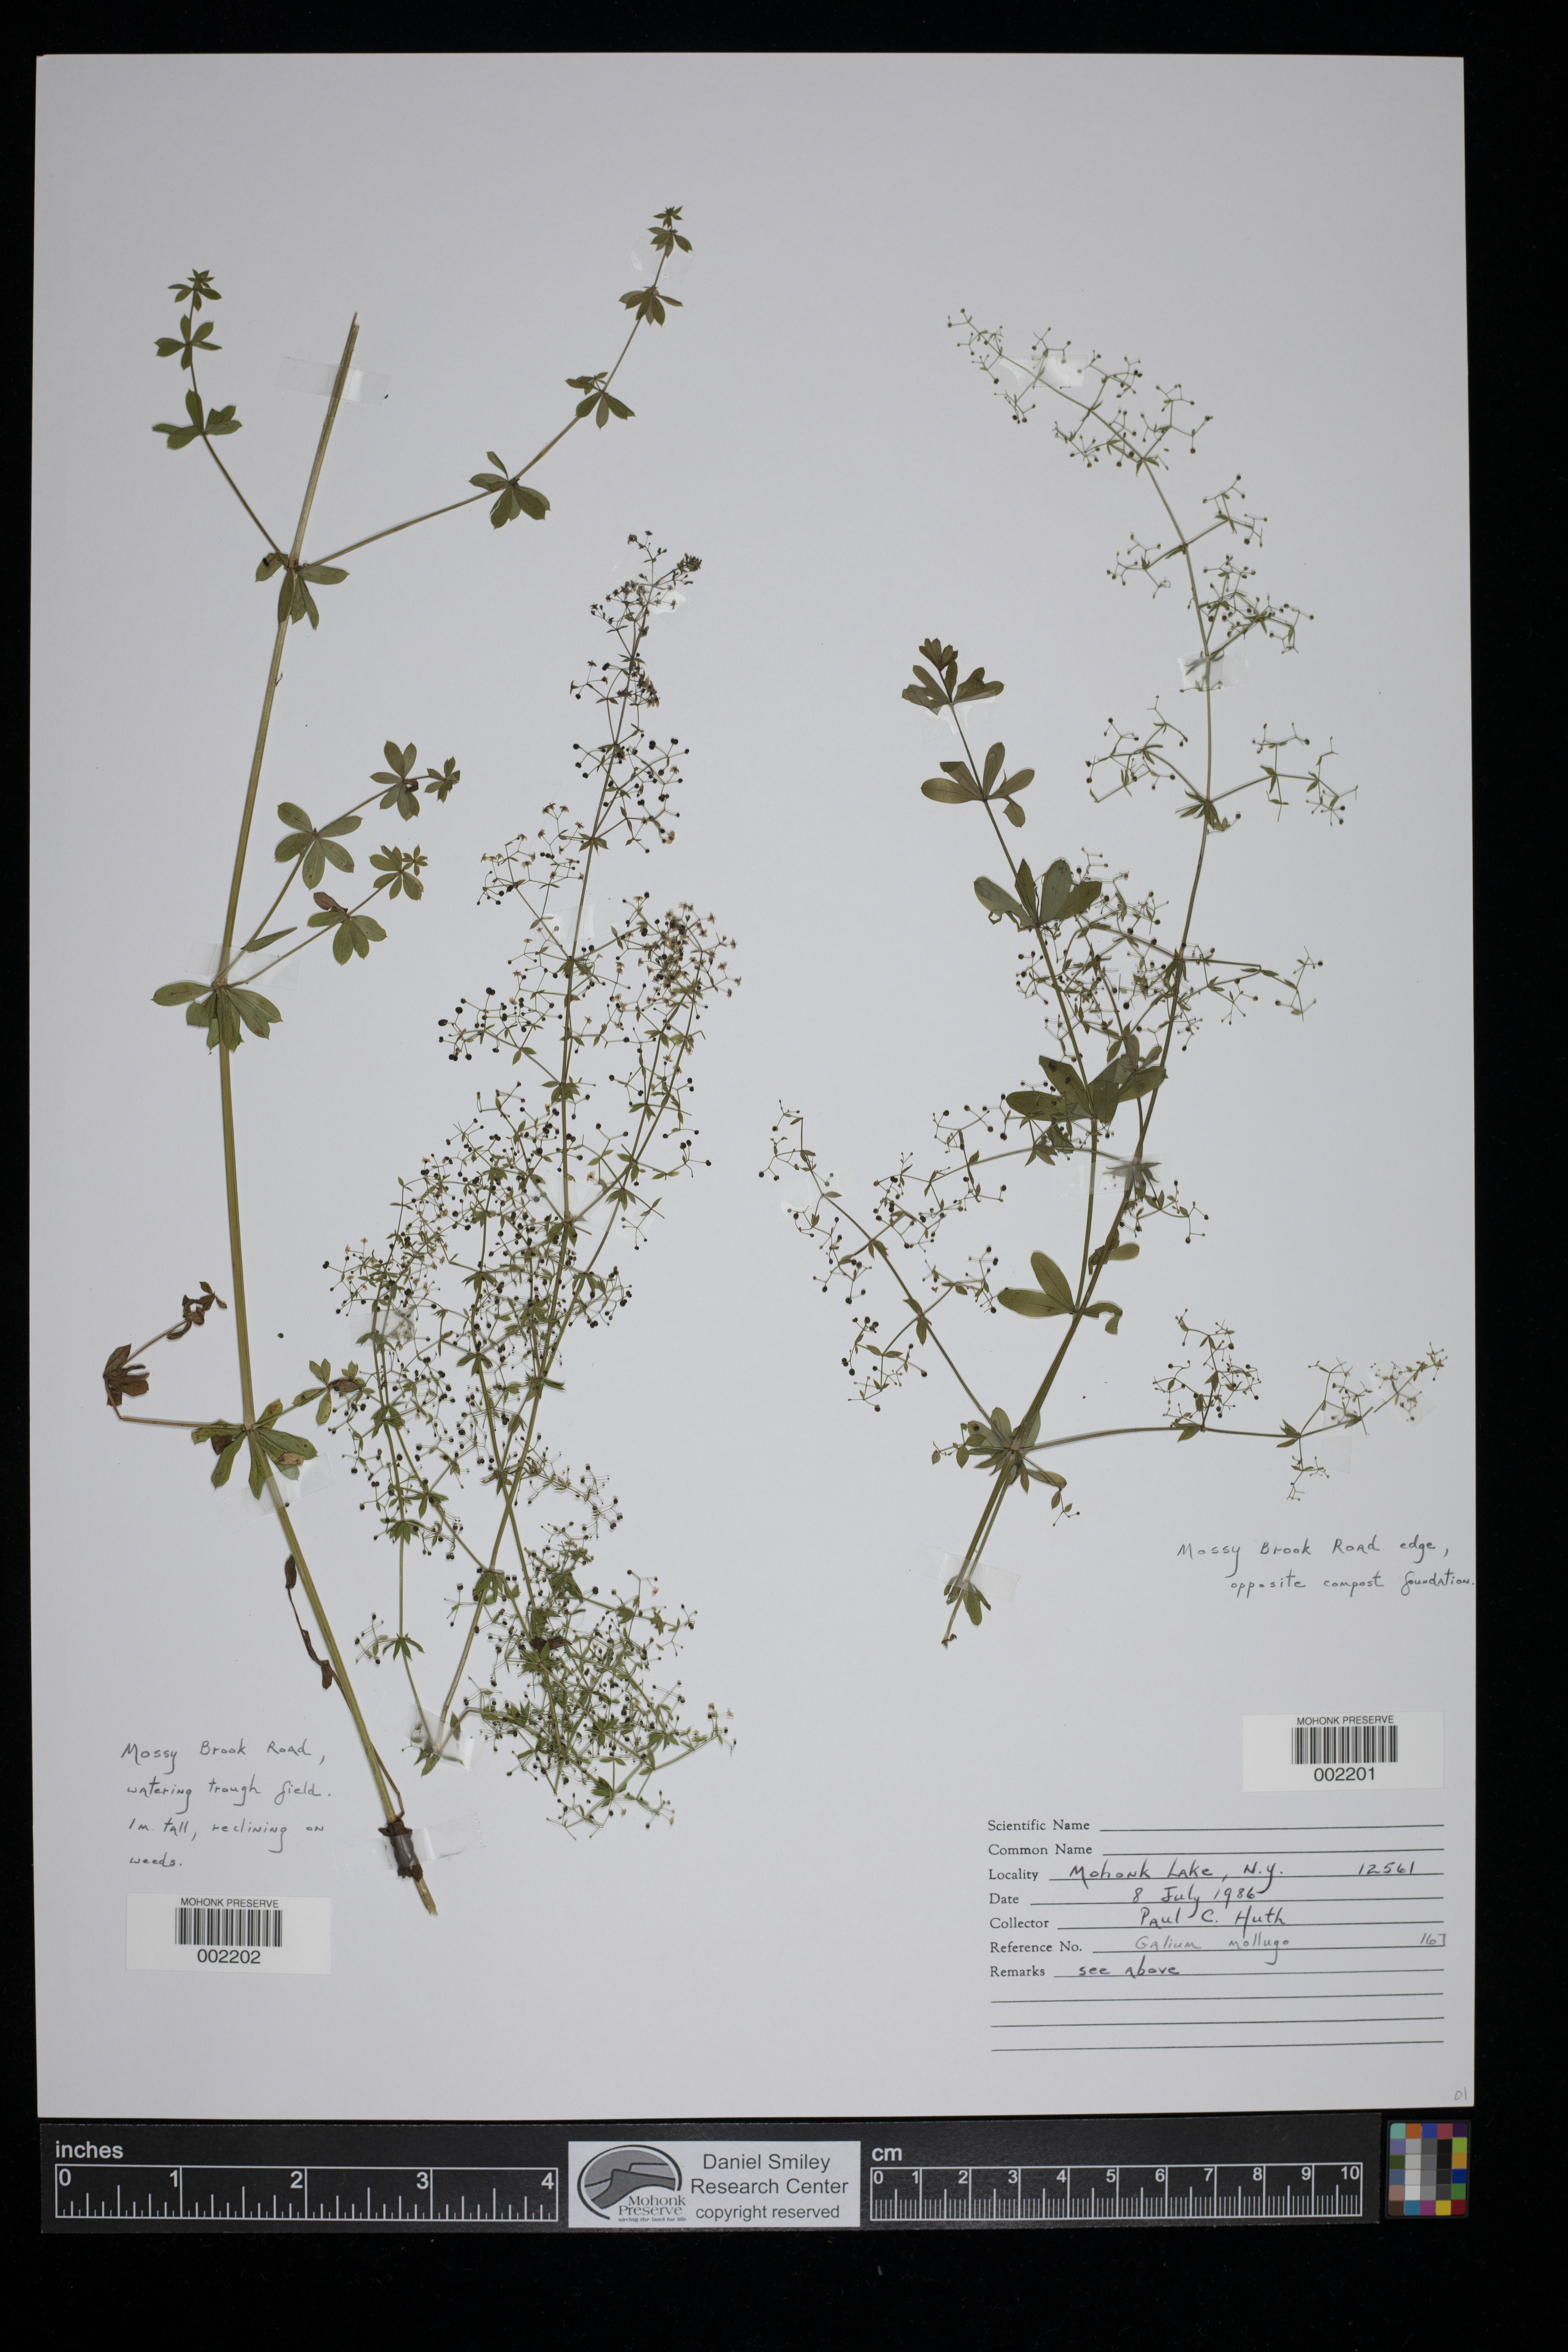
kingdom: Plantae
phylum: Tracheophyta
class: Magnoliopsida
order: Gentianales
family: Rubiaceae
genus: Galium
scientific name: Galium mollugo
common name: Hedge bedstraw
